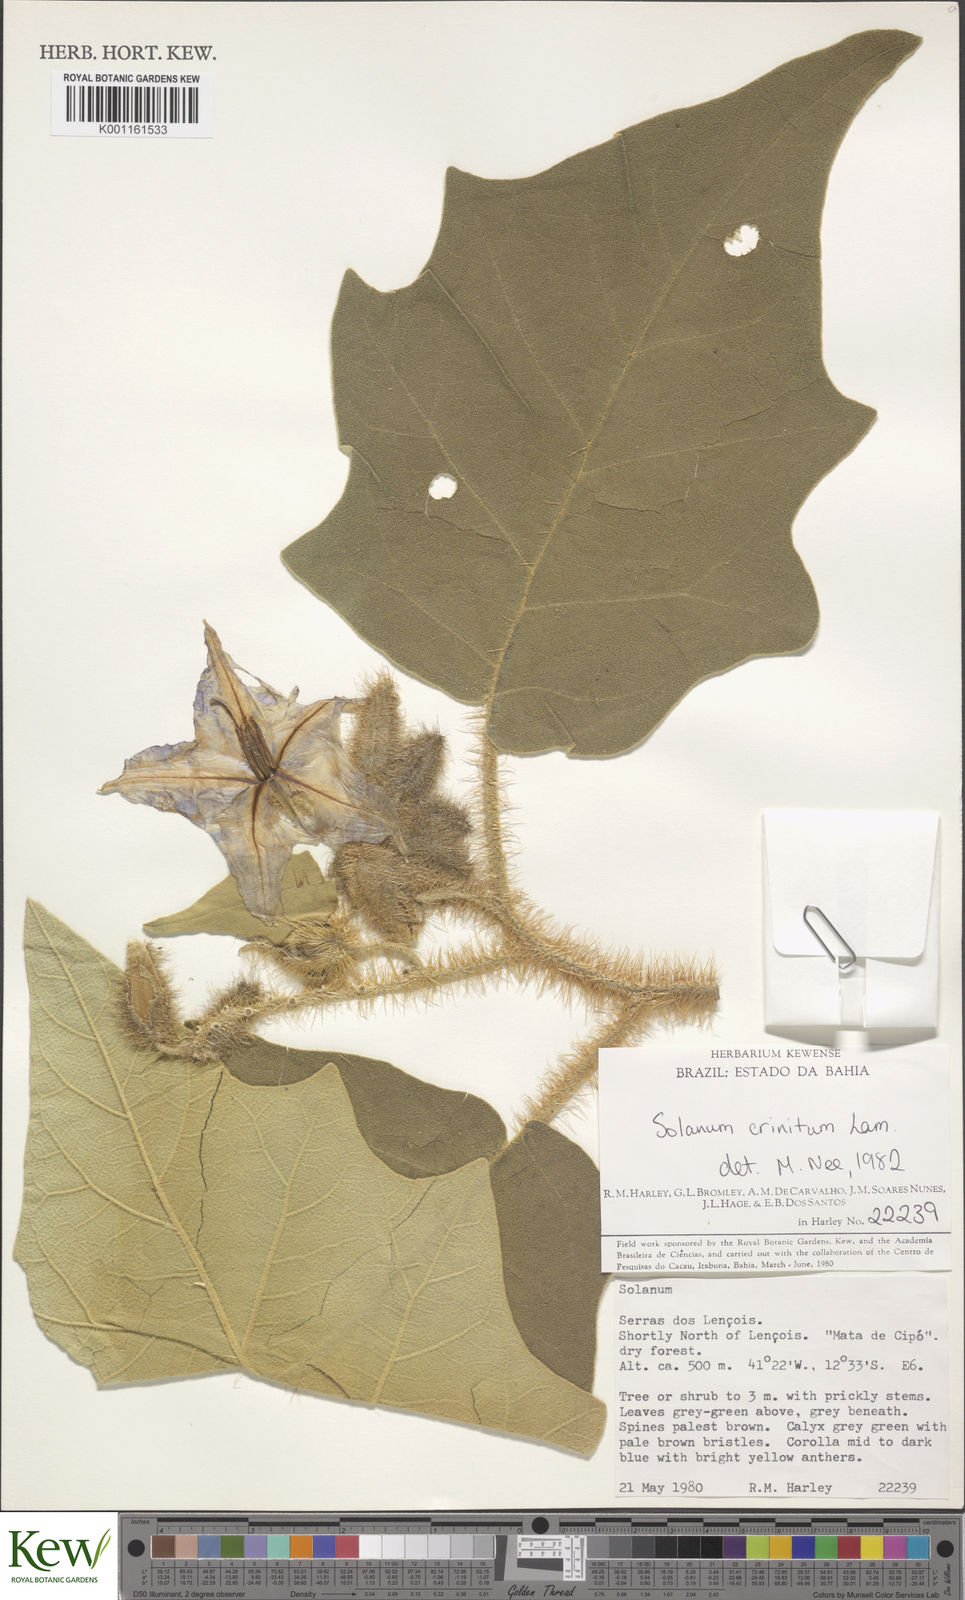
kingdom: Plantae
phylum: Tracheophyta
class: Magnoliopsida
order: Solanales
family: Solanaceae
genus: Solanum
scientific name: Solanum crinitum
